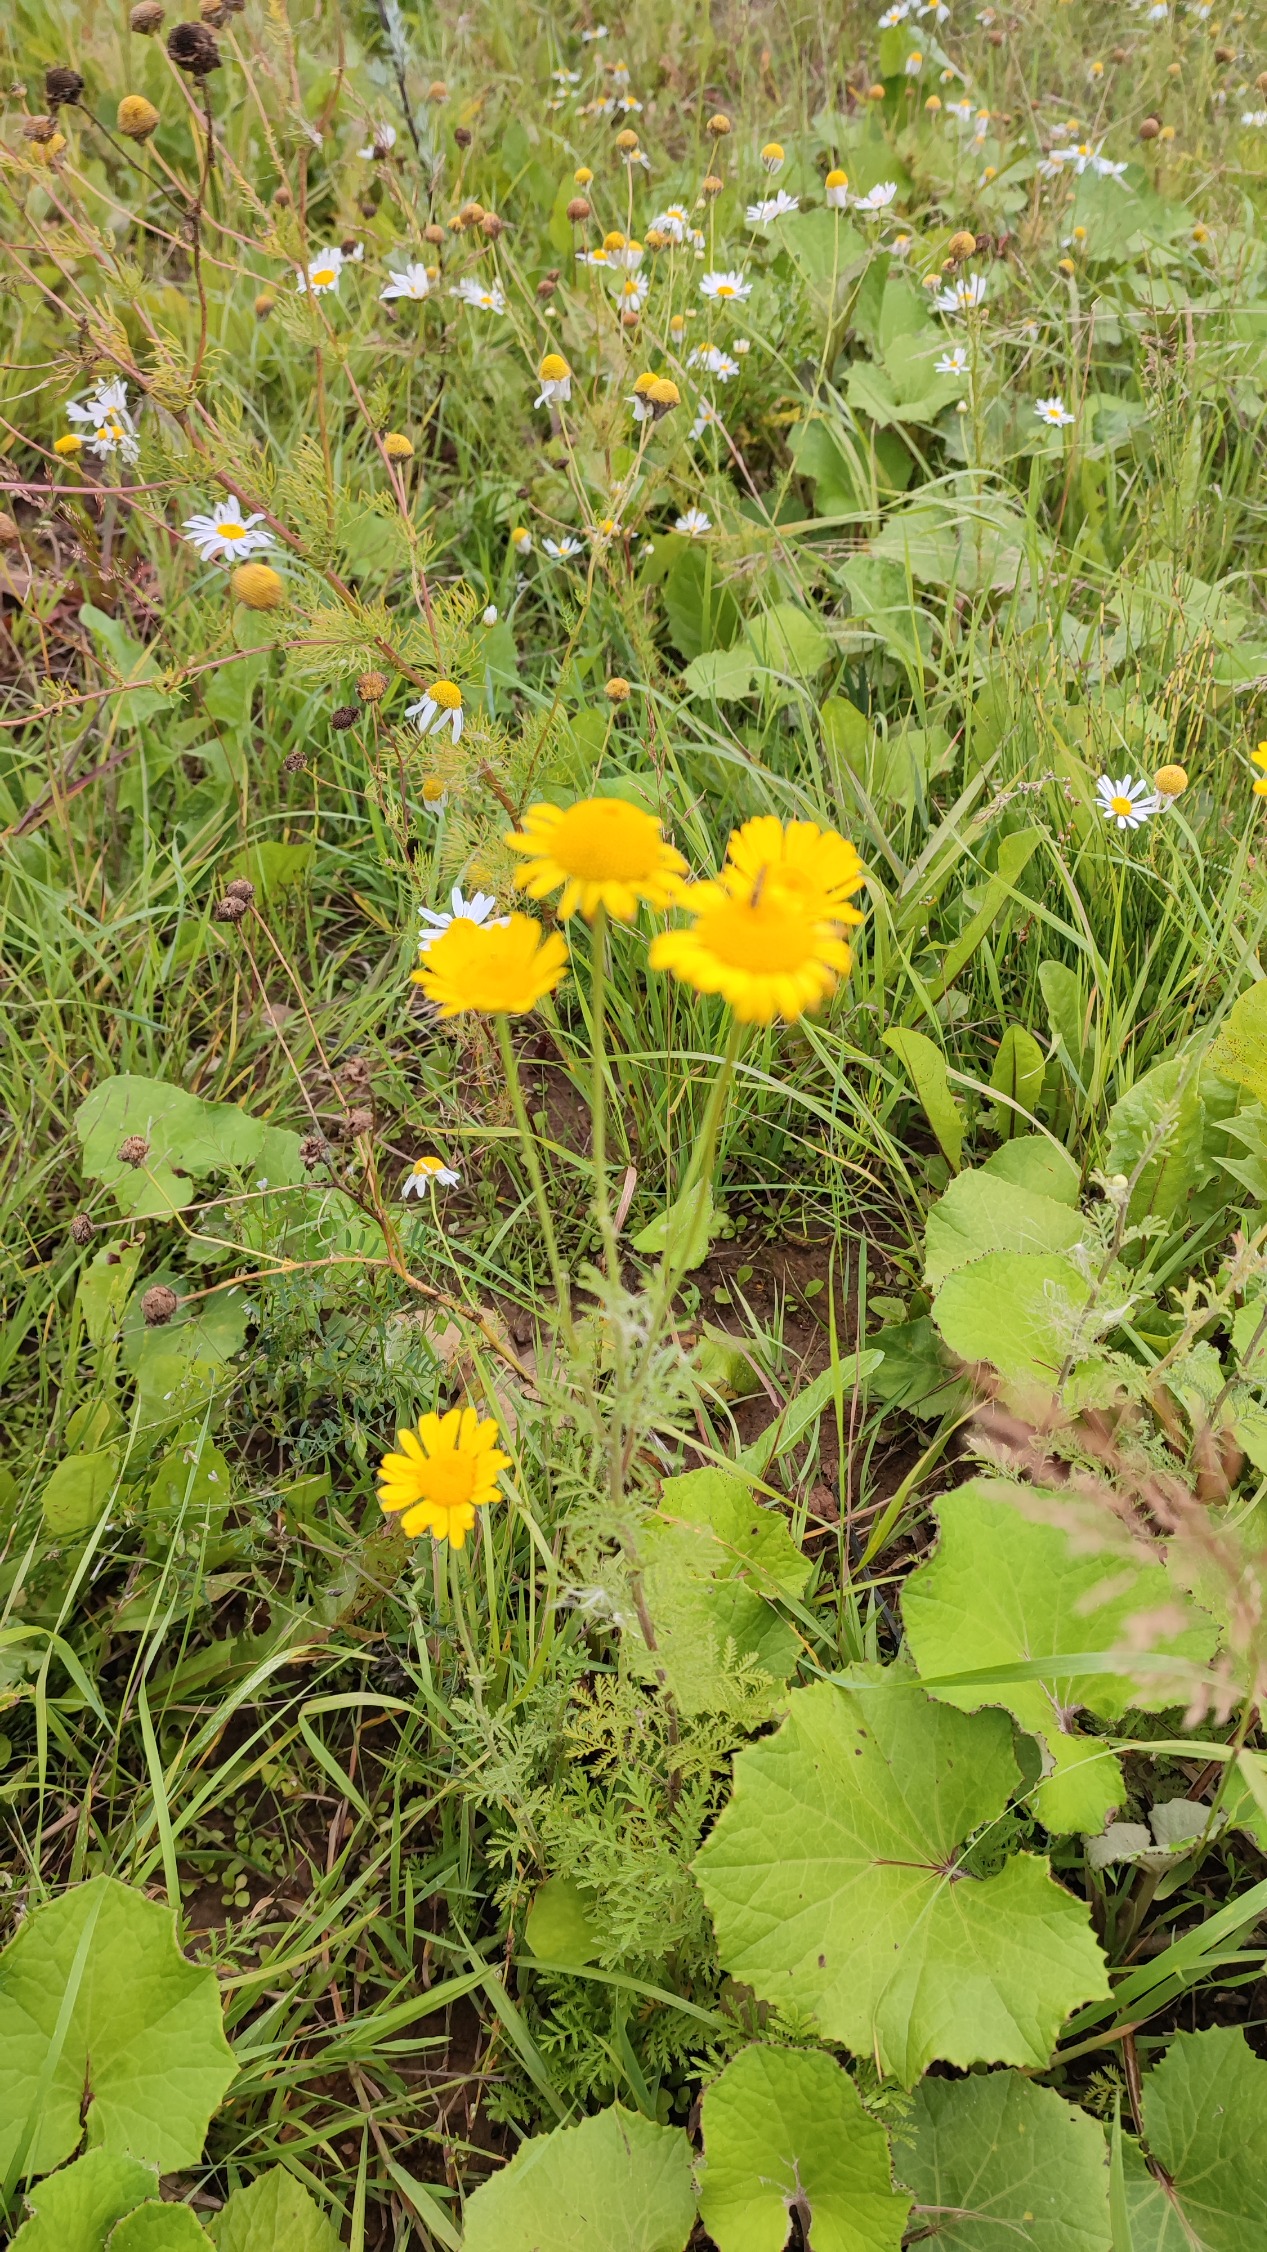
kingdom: Plantae
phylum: Tracheophyta
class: Magnoliopsida
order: Asterales
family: Asteraceae
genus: Cota
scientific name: Cota tinctoria
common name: Farve-gåseurt
